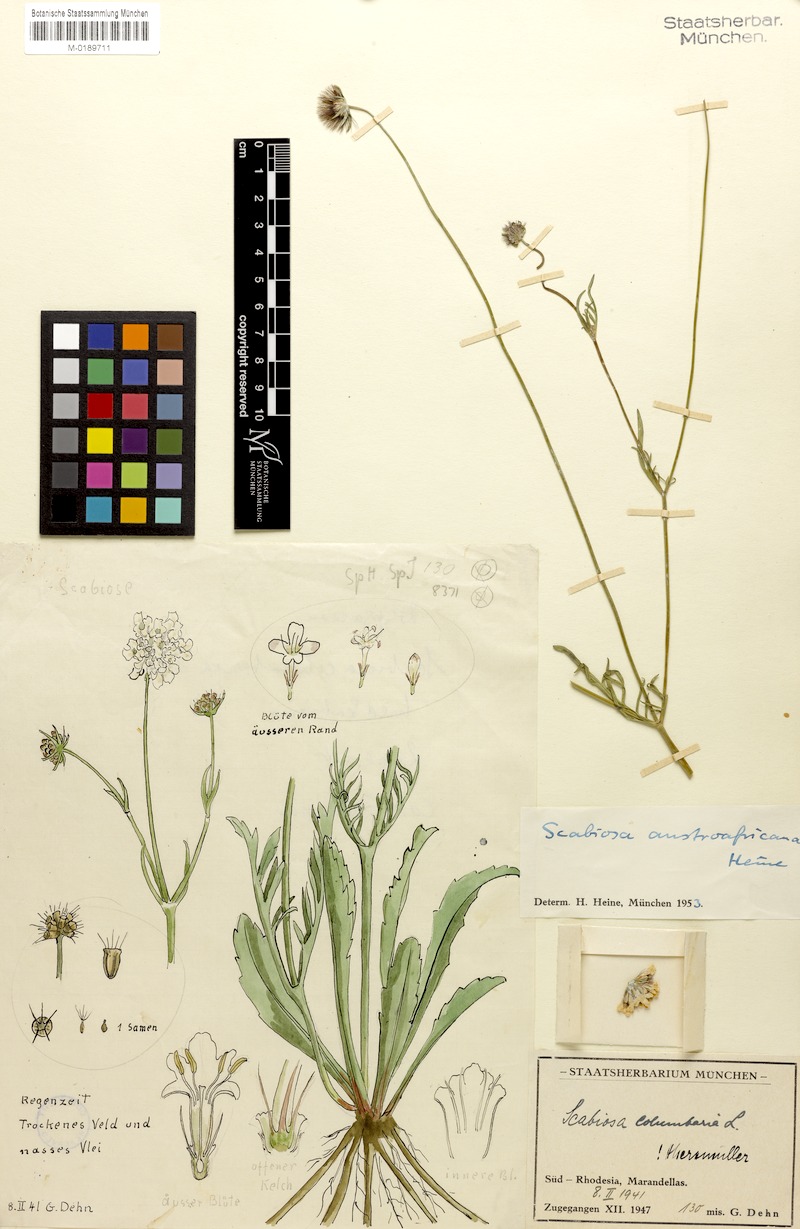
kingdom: Plantae
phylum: Tracheophyta
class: Magnoliopsida
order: Dipsacales
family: Caprifoliaceae
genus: Scabiosa
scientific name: Scabiosa columbaria
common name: Small scabious
